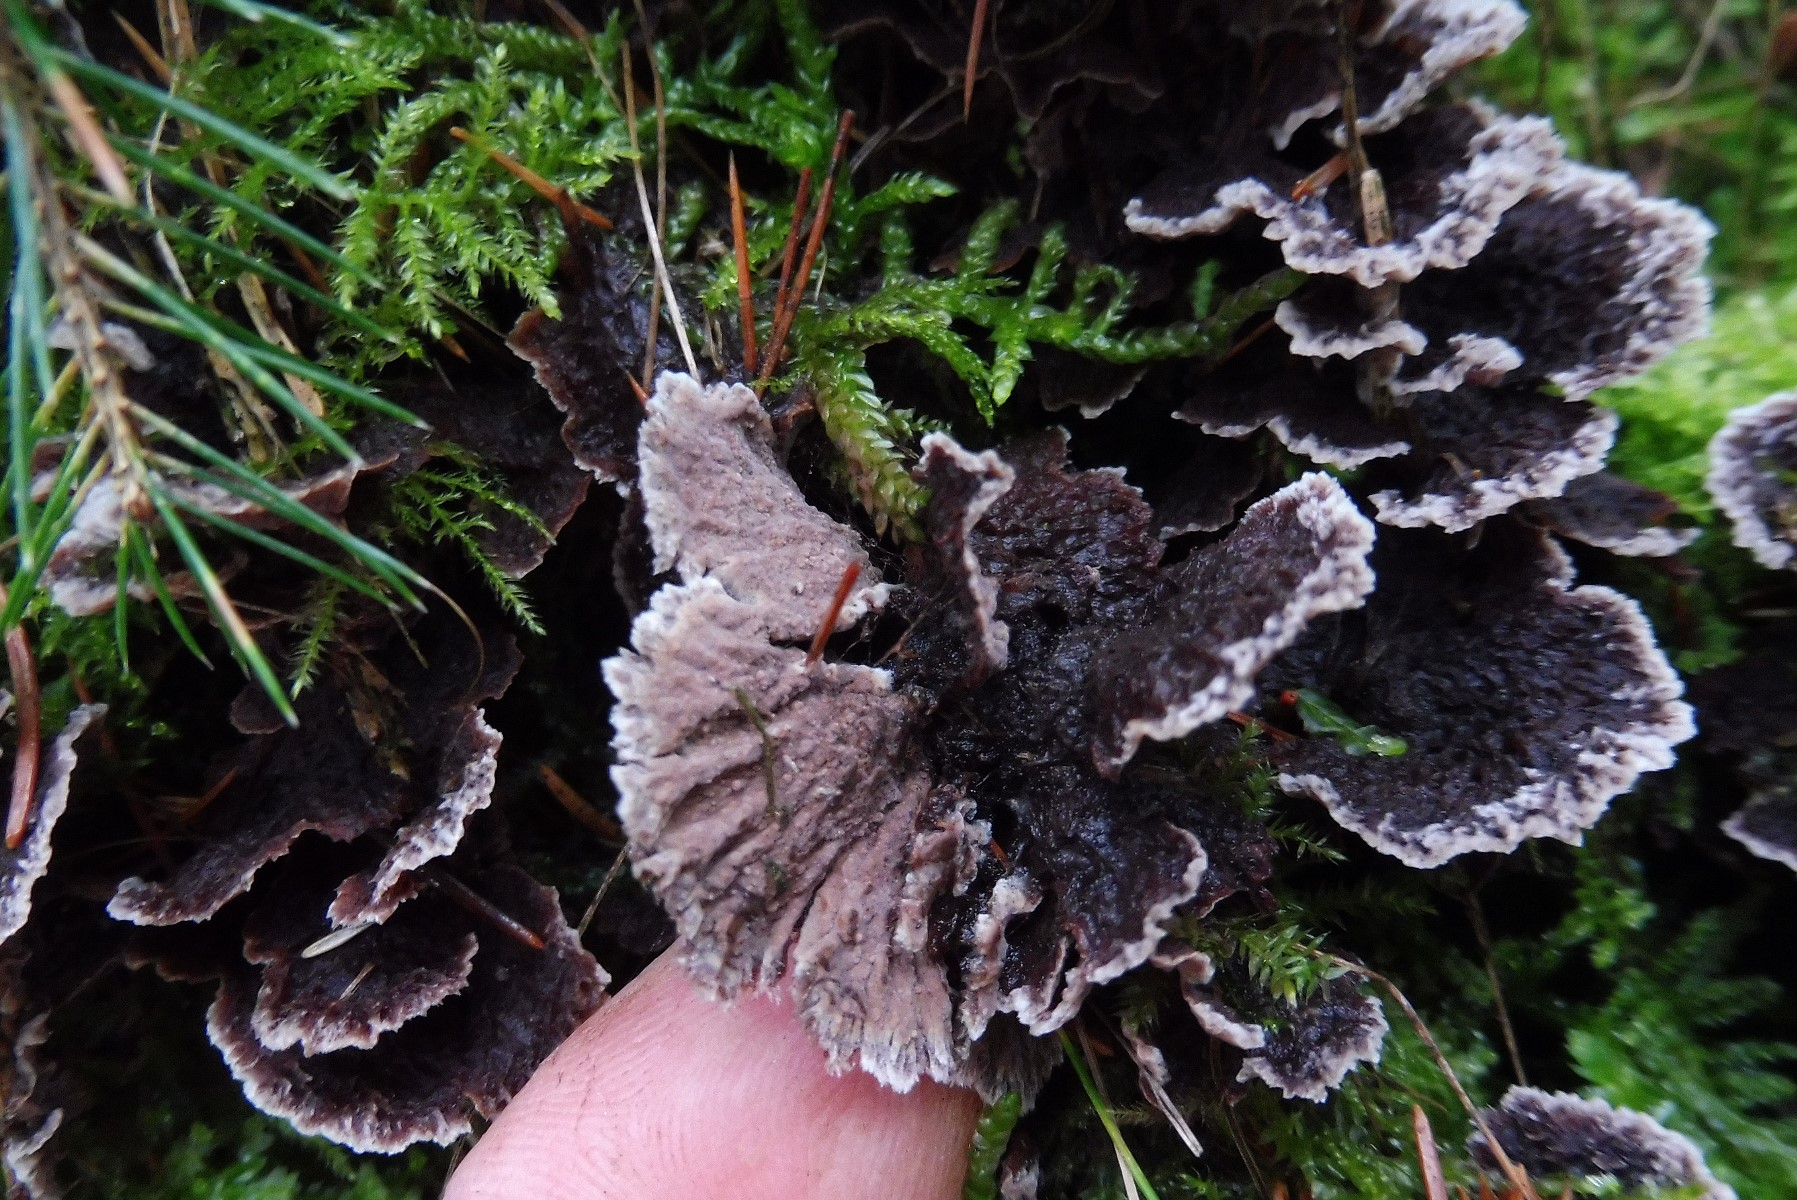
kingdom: Fungi
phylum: Basidiomycota
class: Agaricomycetes
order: Thelephorales
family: Thelephoraceae
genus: Thelephora
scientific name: Thelephora terrestris
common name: fliget frynsesvamp
